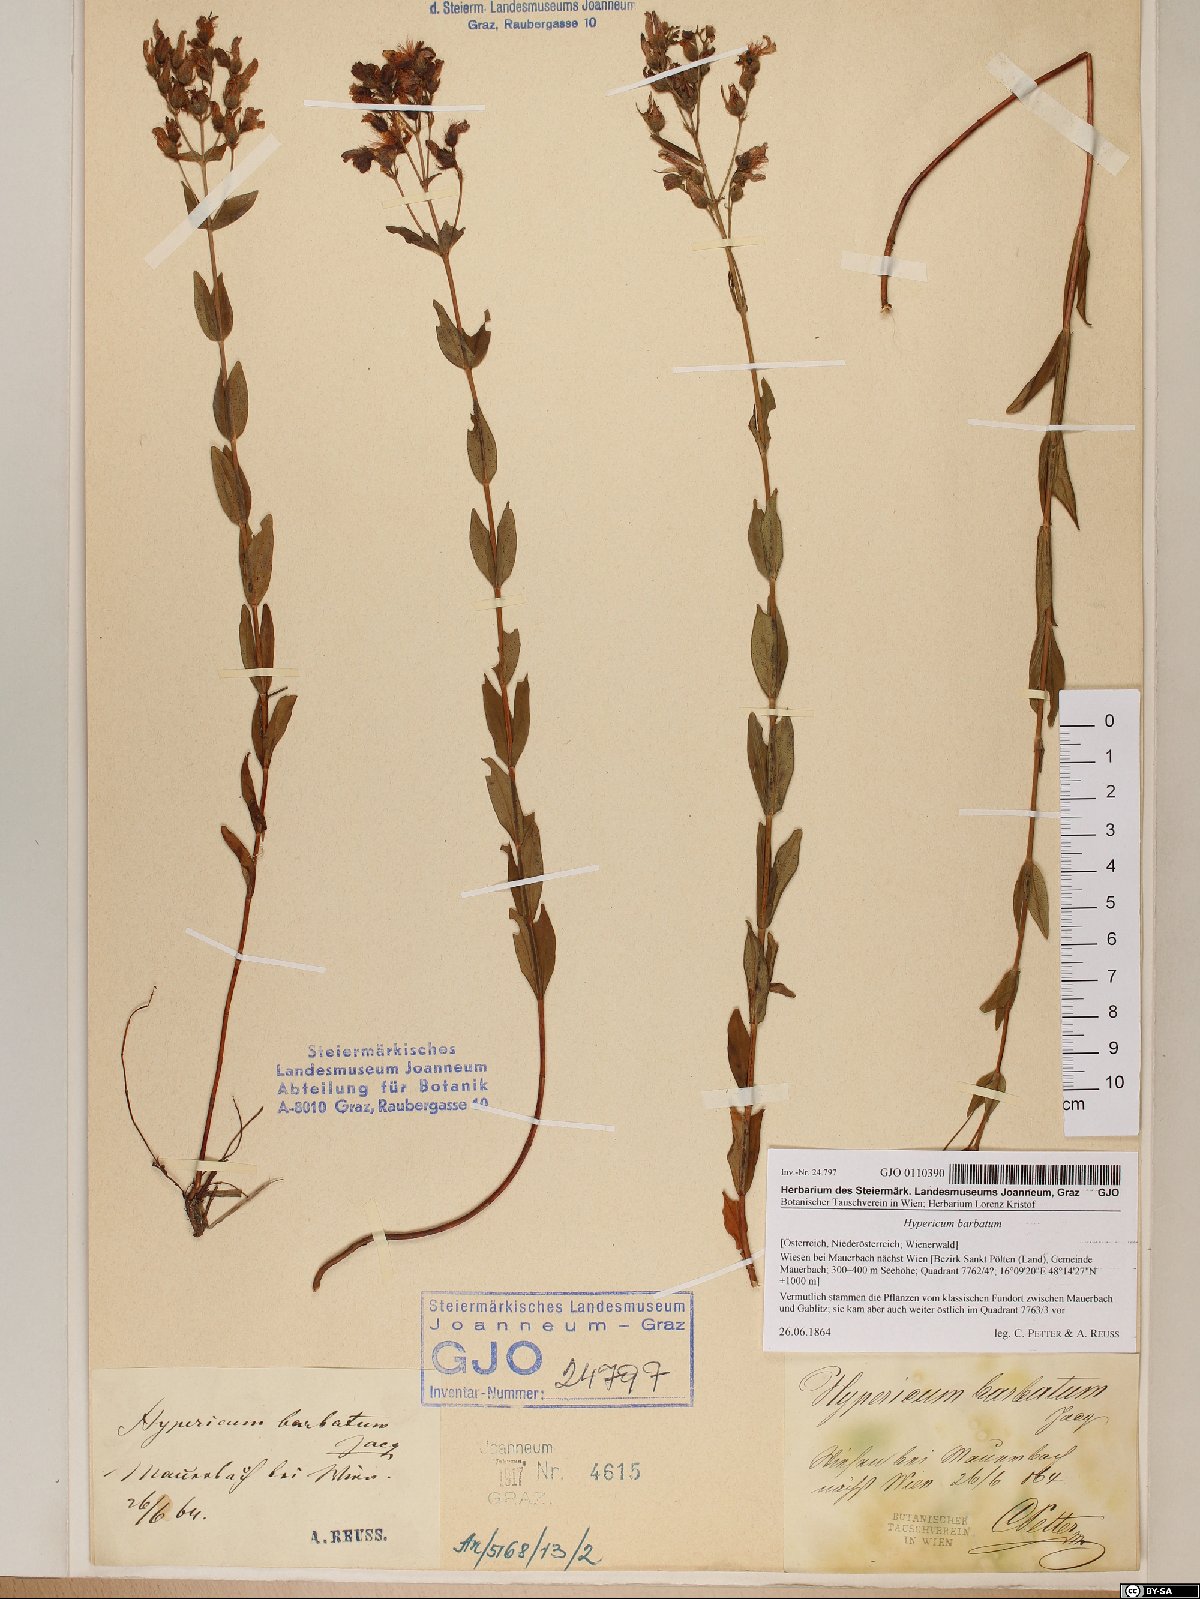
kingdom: Plantae
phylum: Tracheophyta
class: Magnoliopsida
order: Malpighiales
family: Hypericaceae
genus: Hypericum
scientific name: Hypericum barbatum
